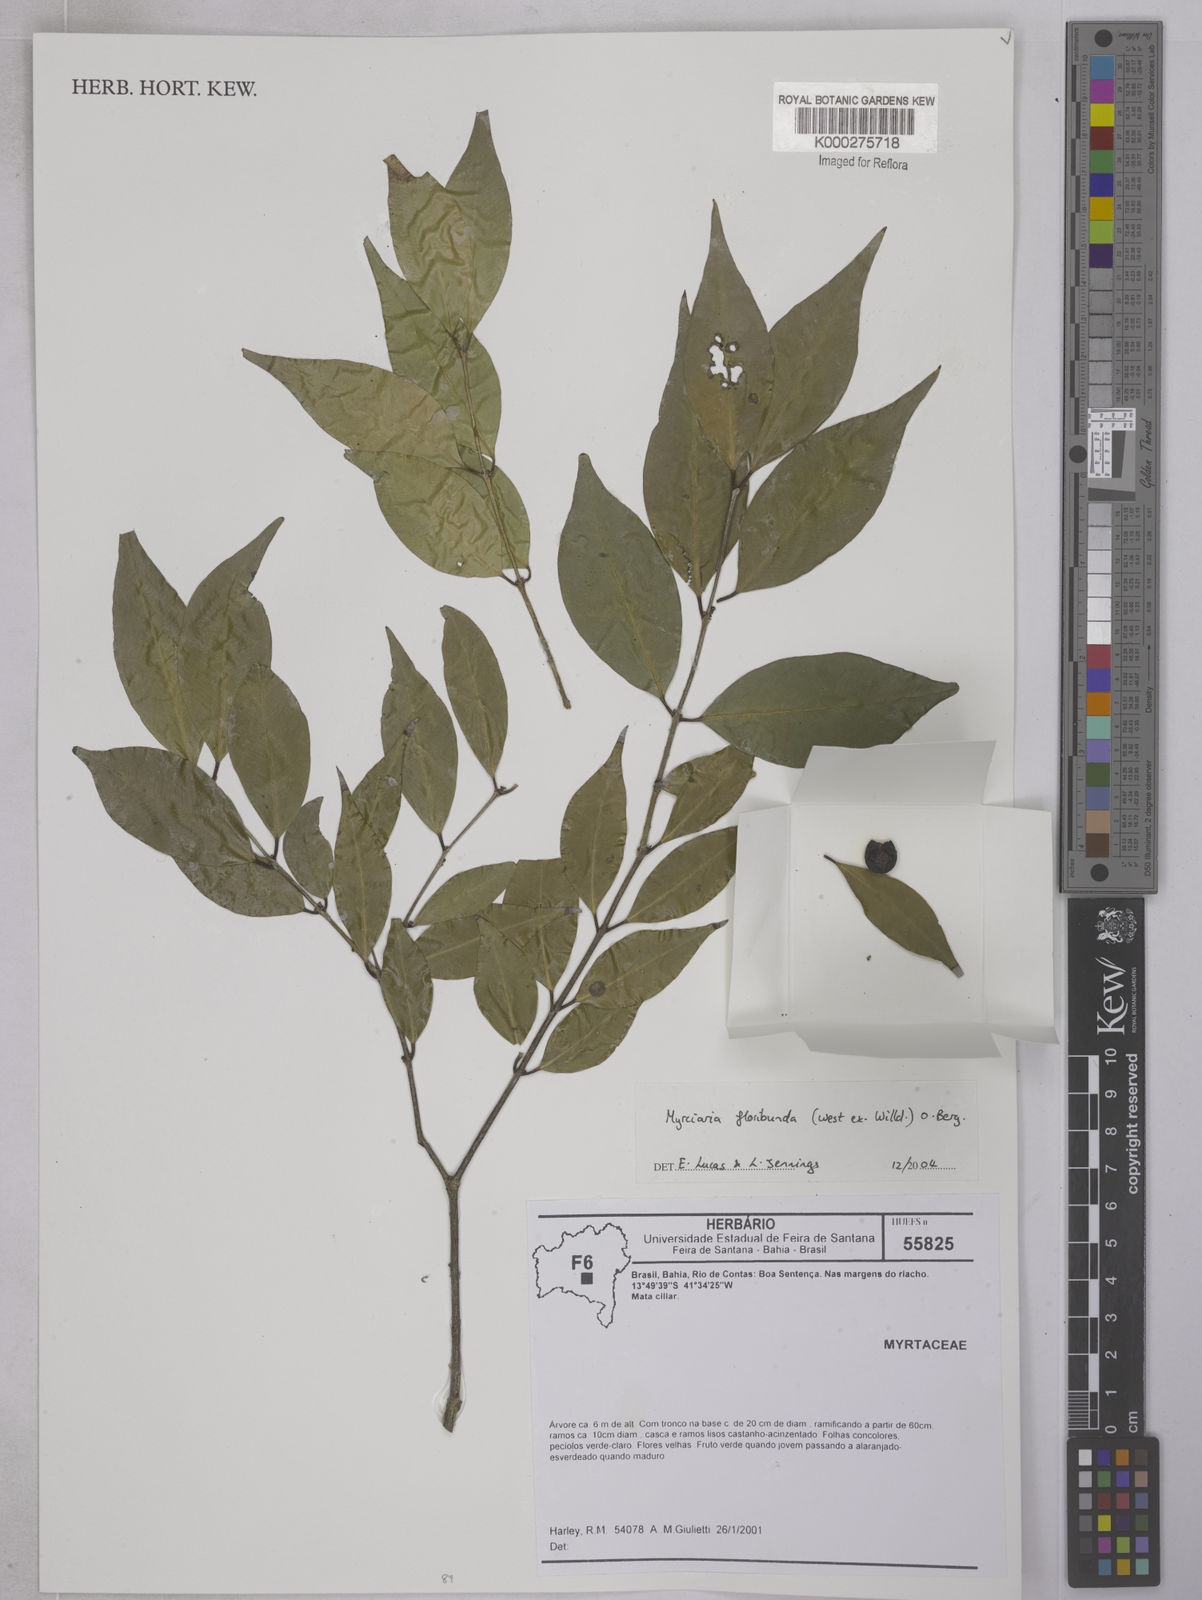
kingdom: Plantae
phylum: Tracheophyta
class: Magnoliopsida
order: Myrtales
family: Myrtaceae
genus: Myrciaria
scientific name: Myrciaria floribunda
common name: Guavaberry
